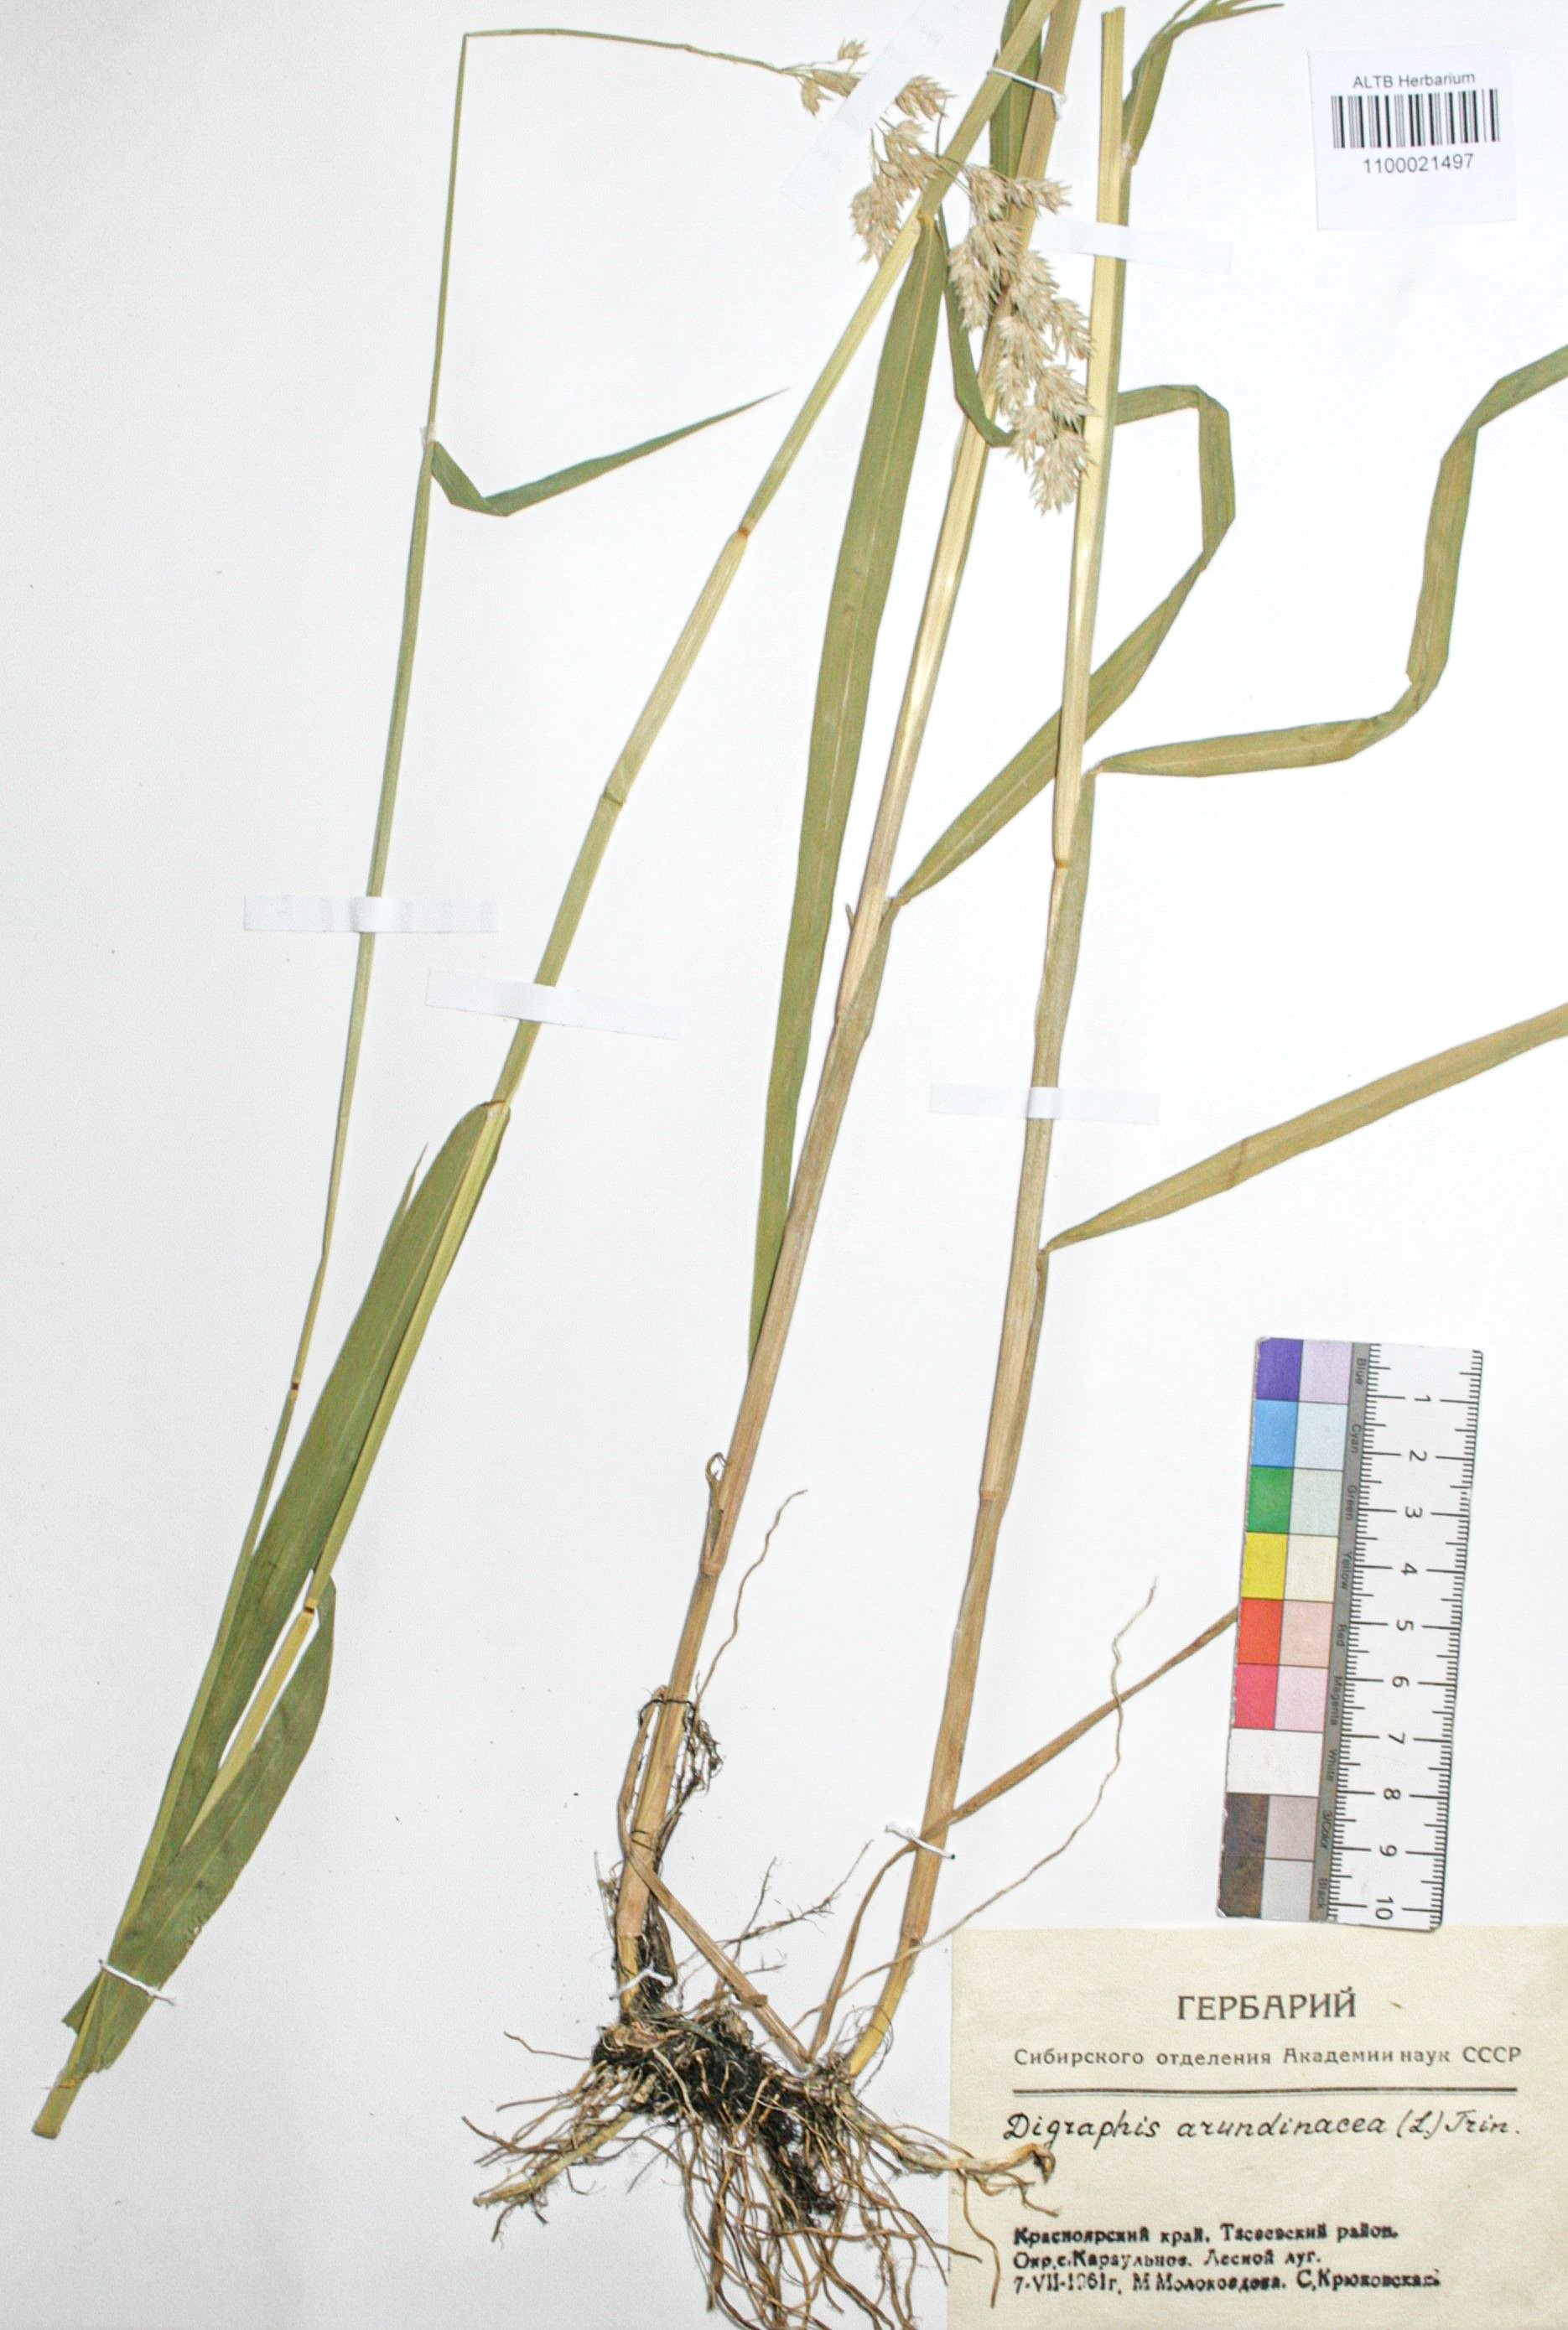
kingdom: Plantae
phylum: Tracheophyta
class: Liliopsida
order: Poales
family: Poaceae
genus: Phalaris
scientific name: Phalaris arundinacea
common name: Reed canary-grass
